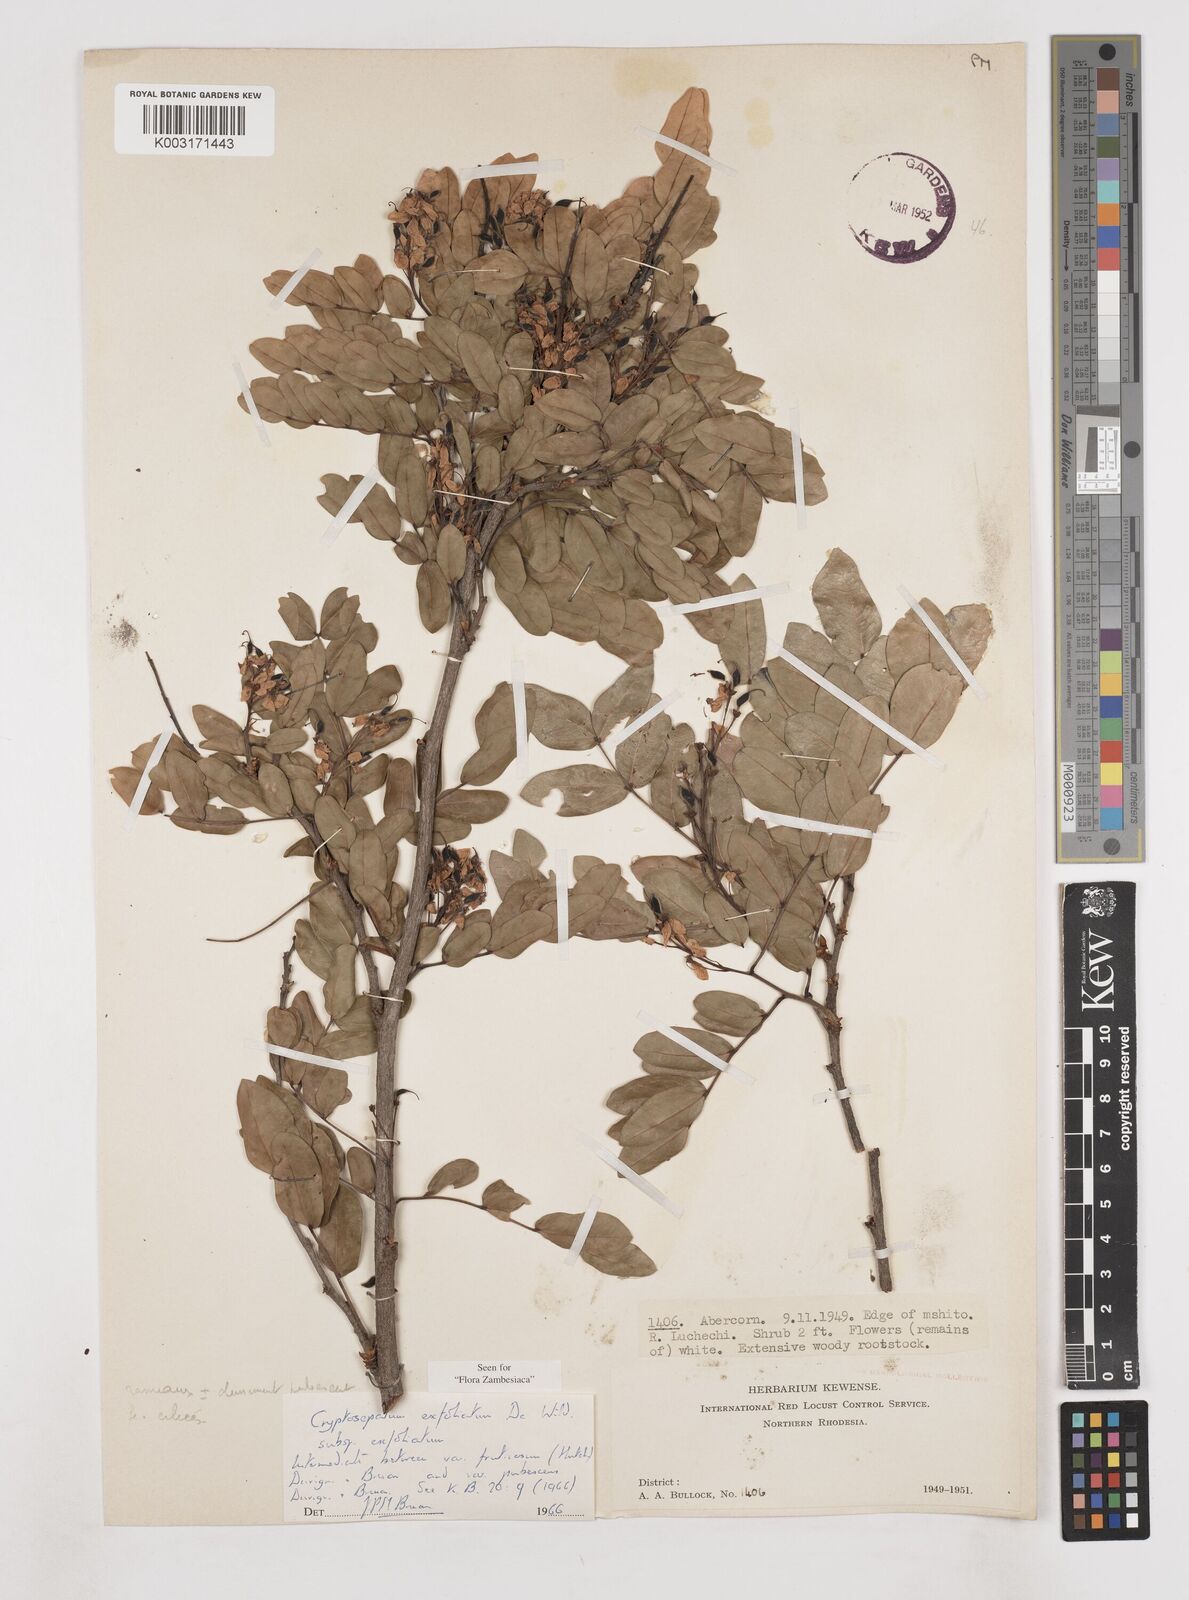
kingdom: Plantae
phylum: Tracheophyta
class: Magnoliopsida
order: Fabales
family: Fabaceae
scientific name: Fabaceae
